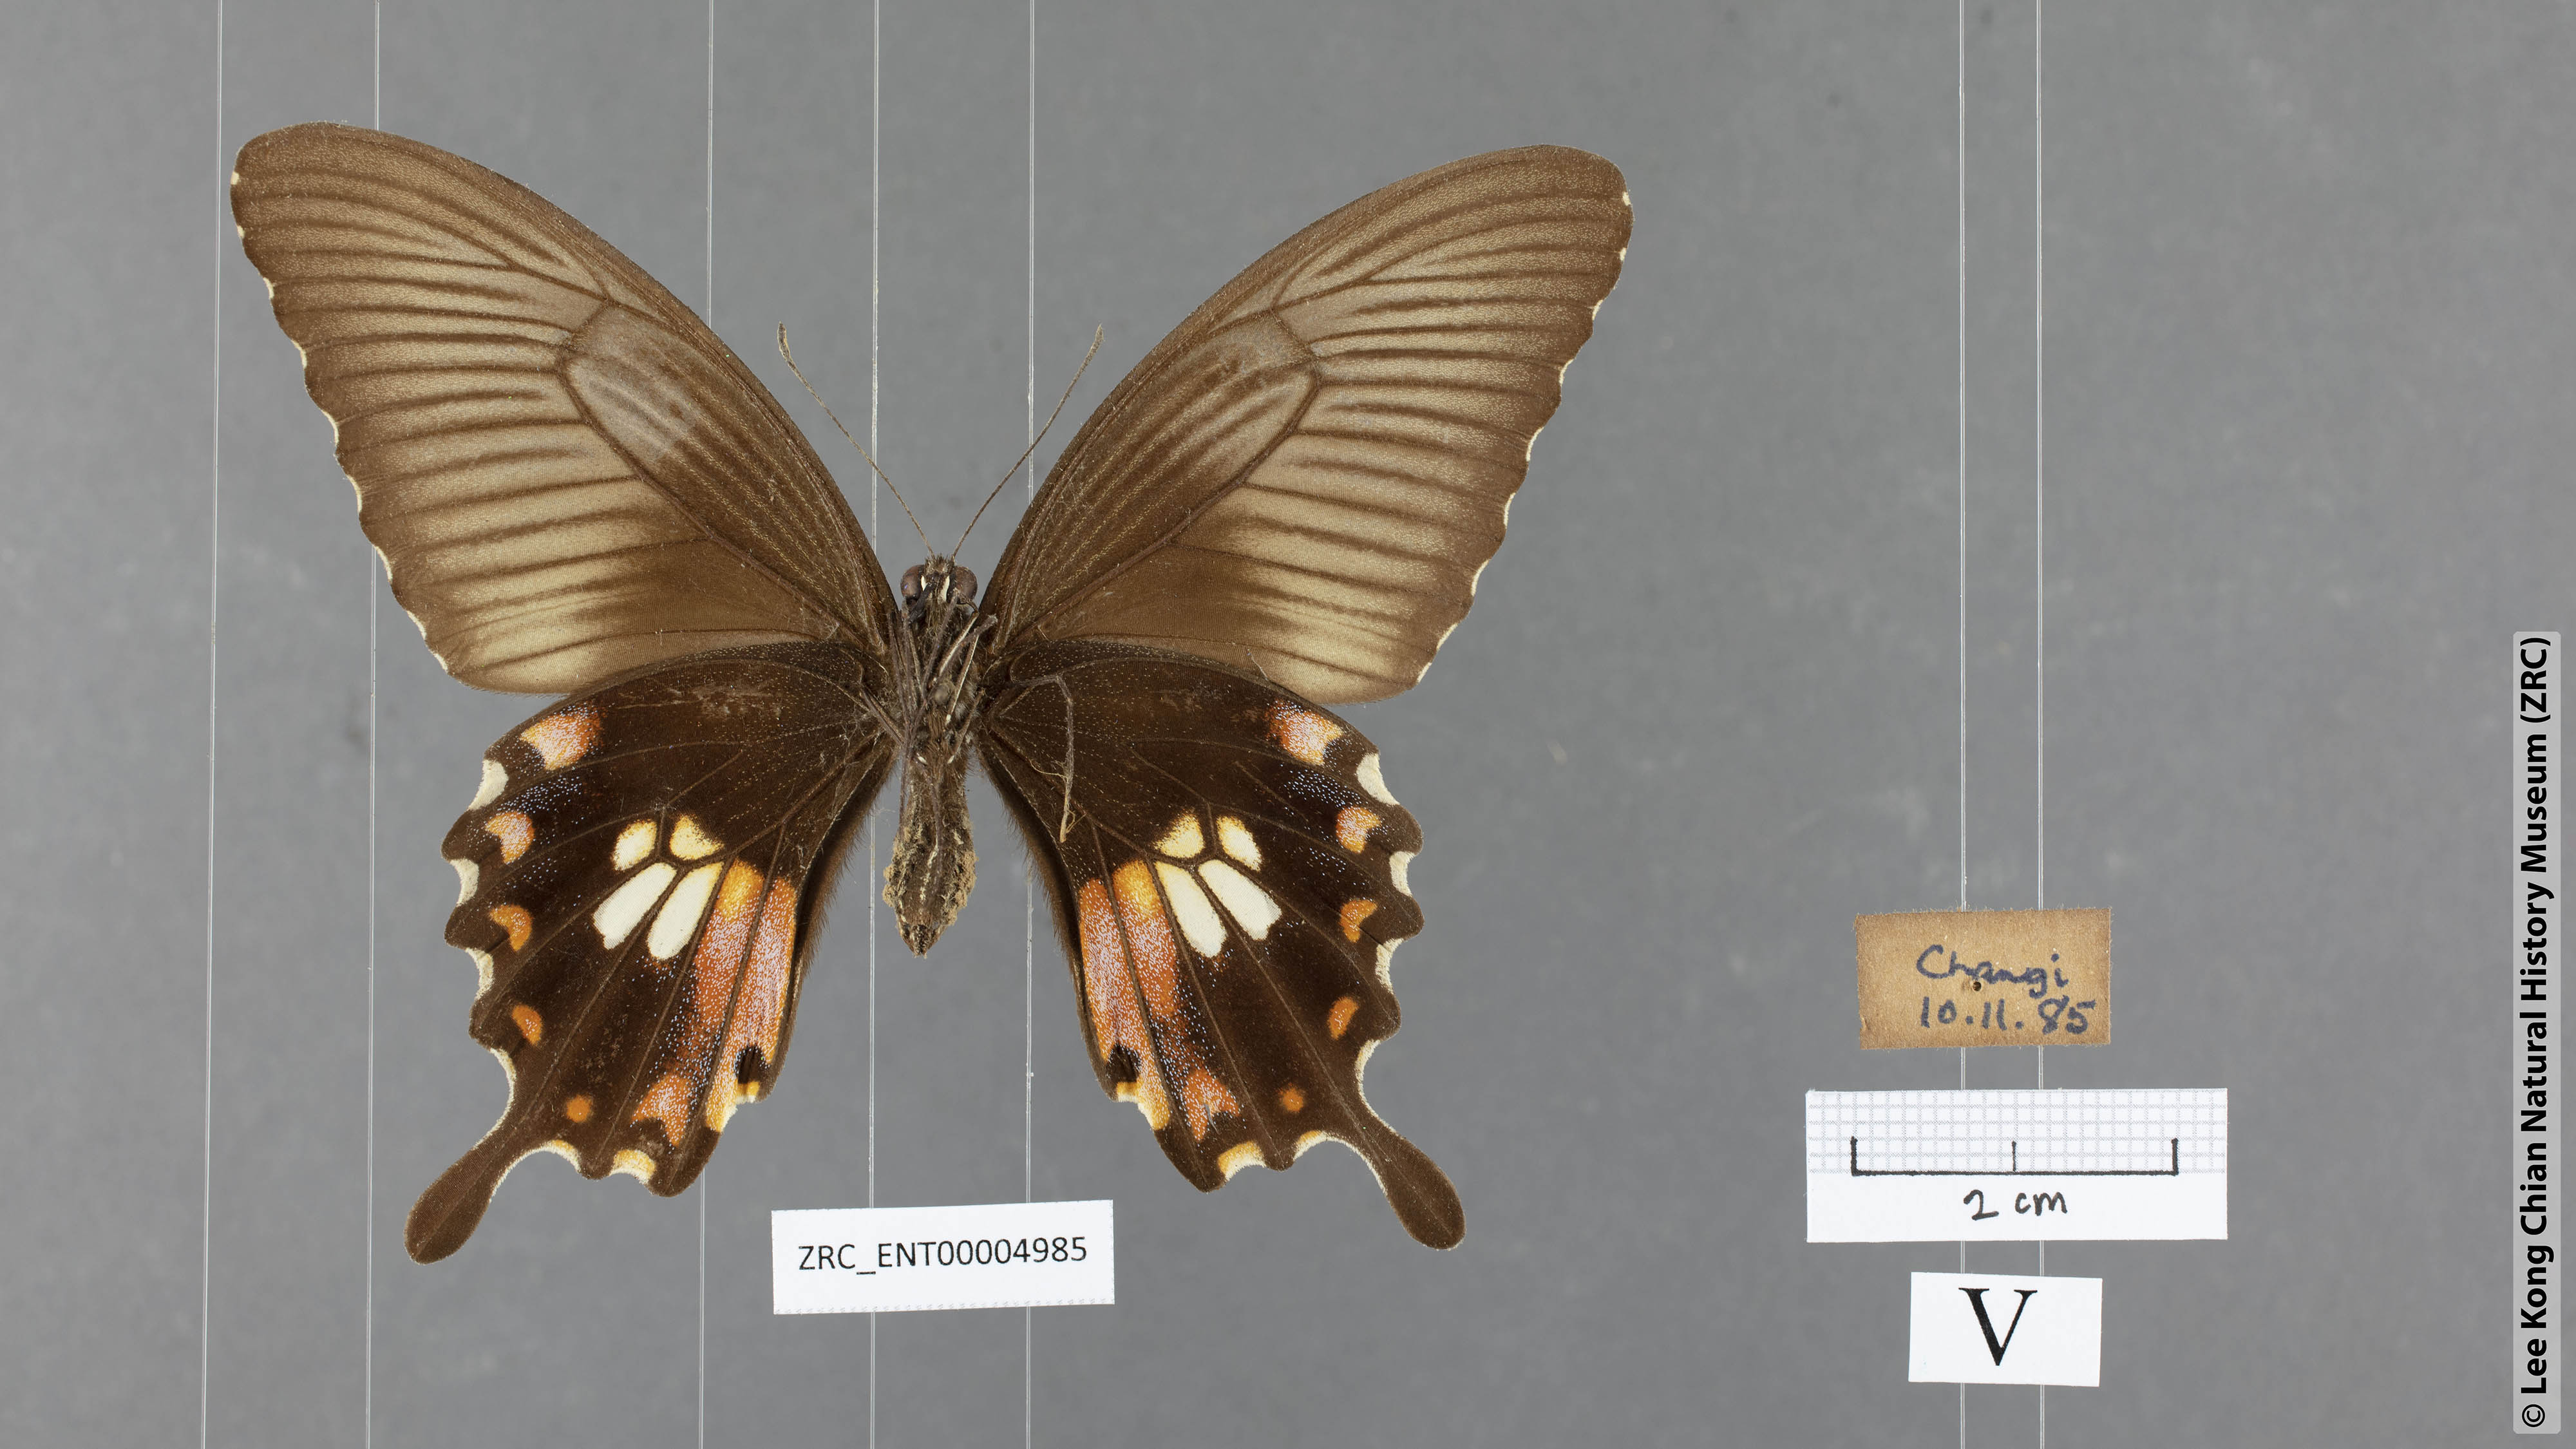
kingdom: Animalia
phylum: Arthropoda
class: Insecta
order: Lepidoptera
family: Papilionidae
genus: Papilio
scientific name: Papilio polytes
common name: Common mormon
